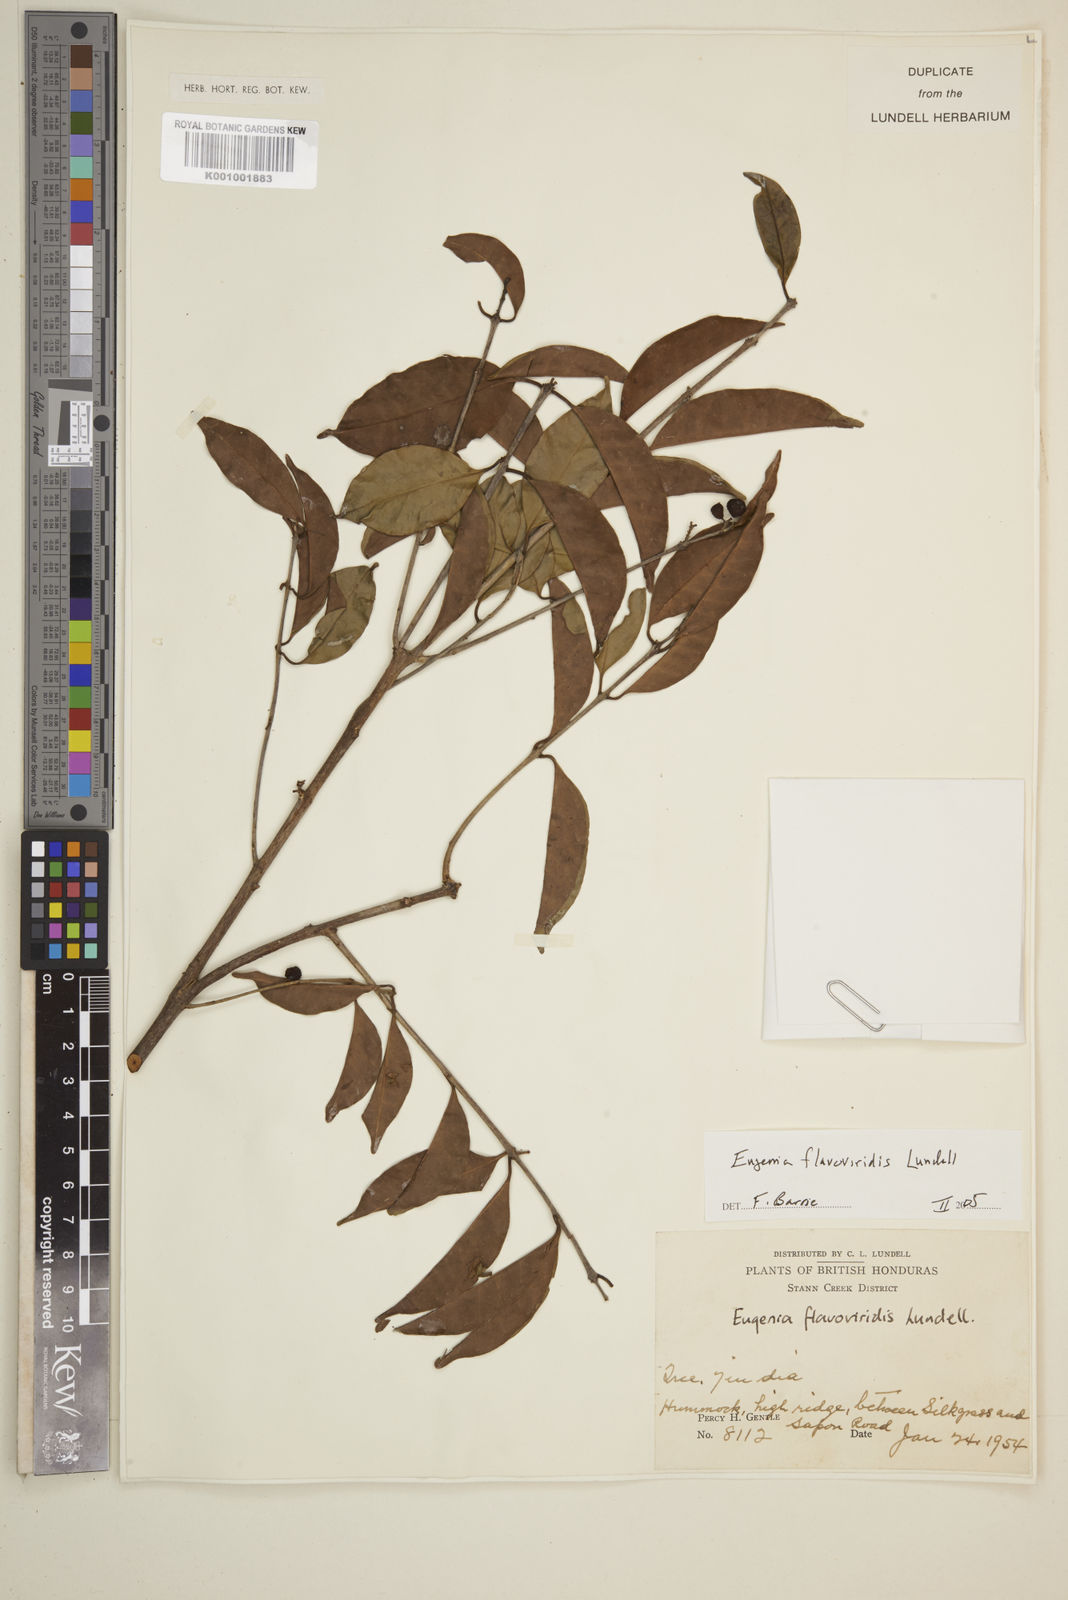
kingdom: Plantae
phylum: Tracheophyta
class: Magnoliopsida
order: Myrtales
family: Myrtaceae
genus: Eugenia
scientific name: Eugenia flavoviridis
